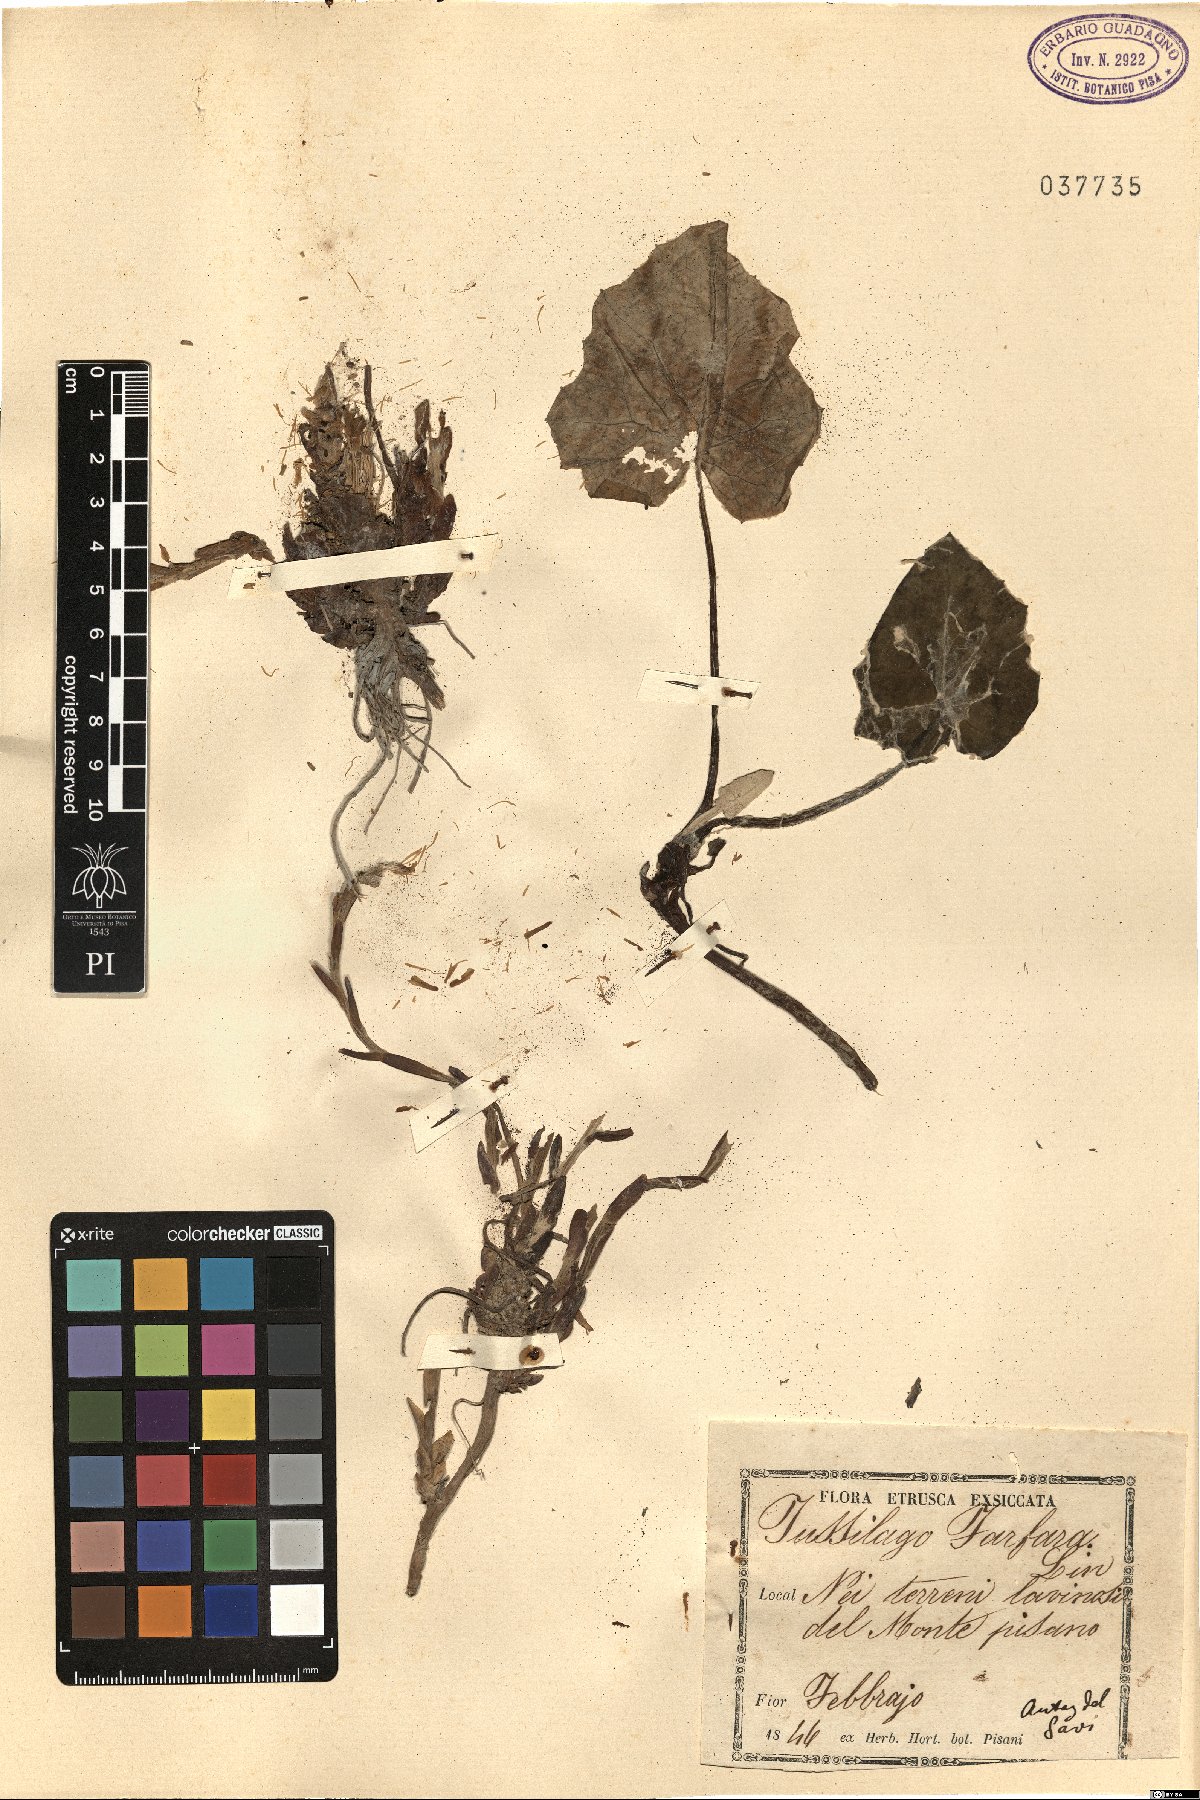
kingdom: Plantae
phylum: Tracheophyta
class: Magnoliopsida
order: Asterales
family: Asteraceae
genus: Tussilago
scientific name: Tussilago farfara
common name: Coltsfoot
